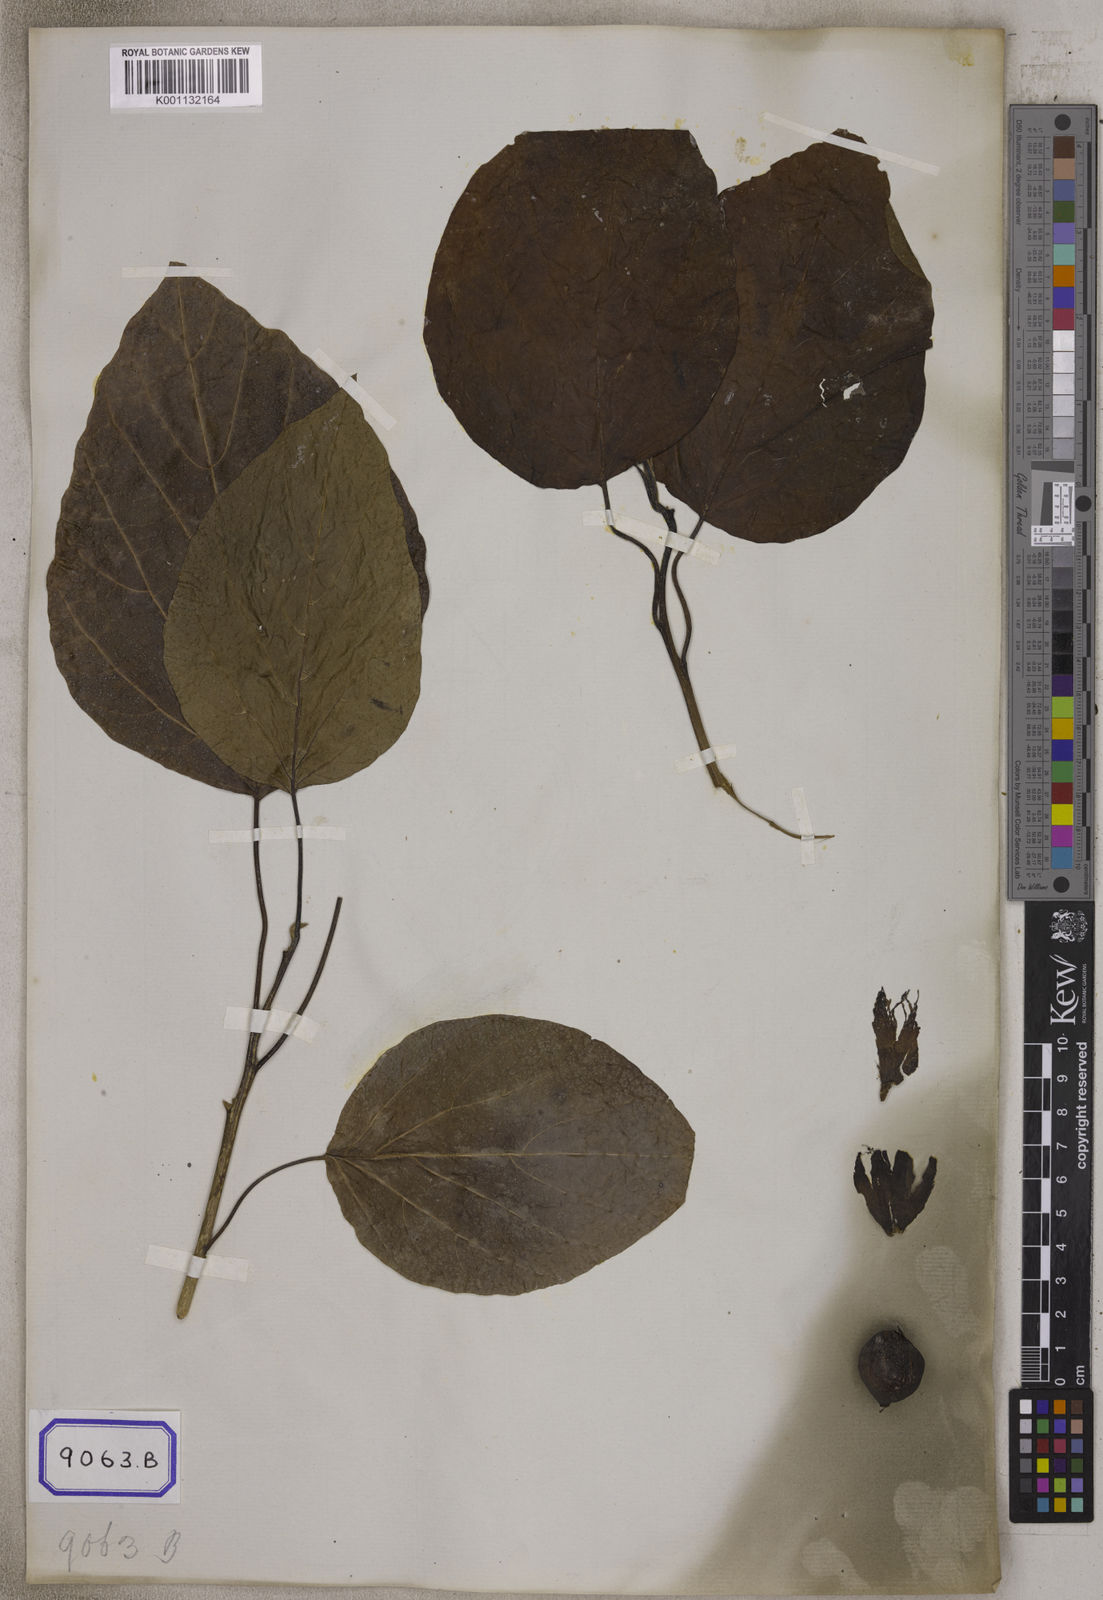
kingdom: Plantae
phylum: Tracheophyta
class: Magnoliopsida
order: Boraginales
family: Cordiaceae
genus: Cordia
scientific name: Cordia subcordata
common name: Mareer
